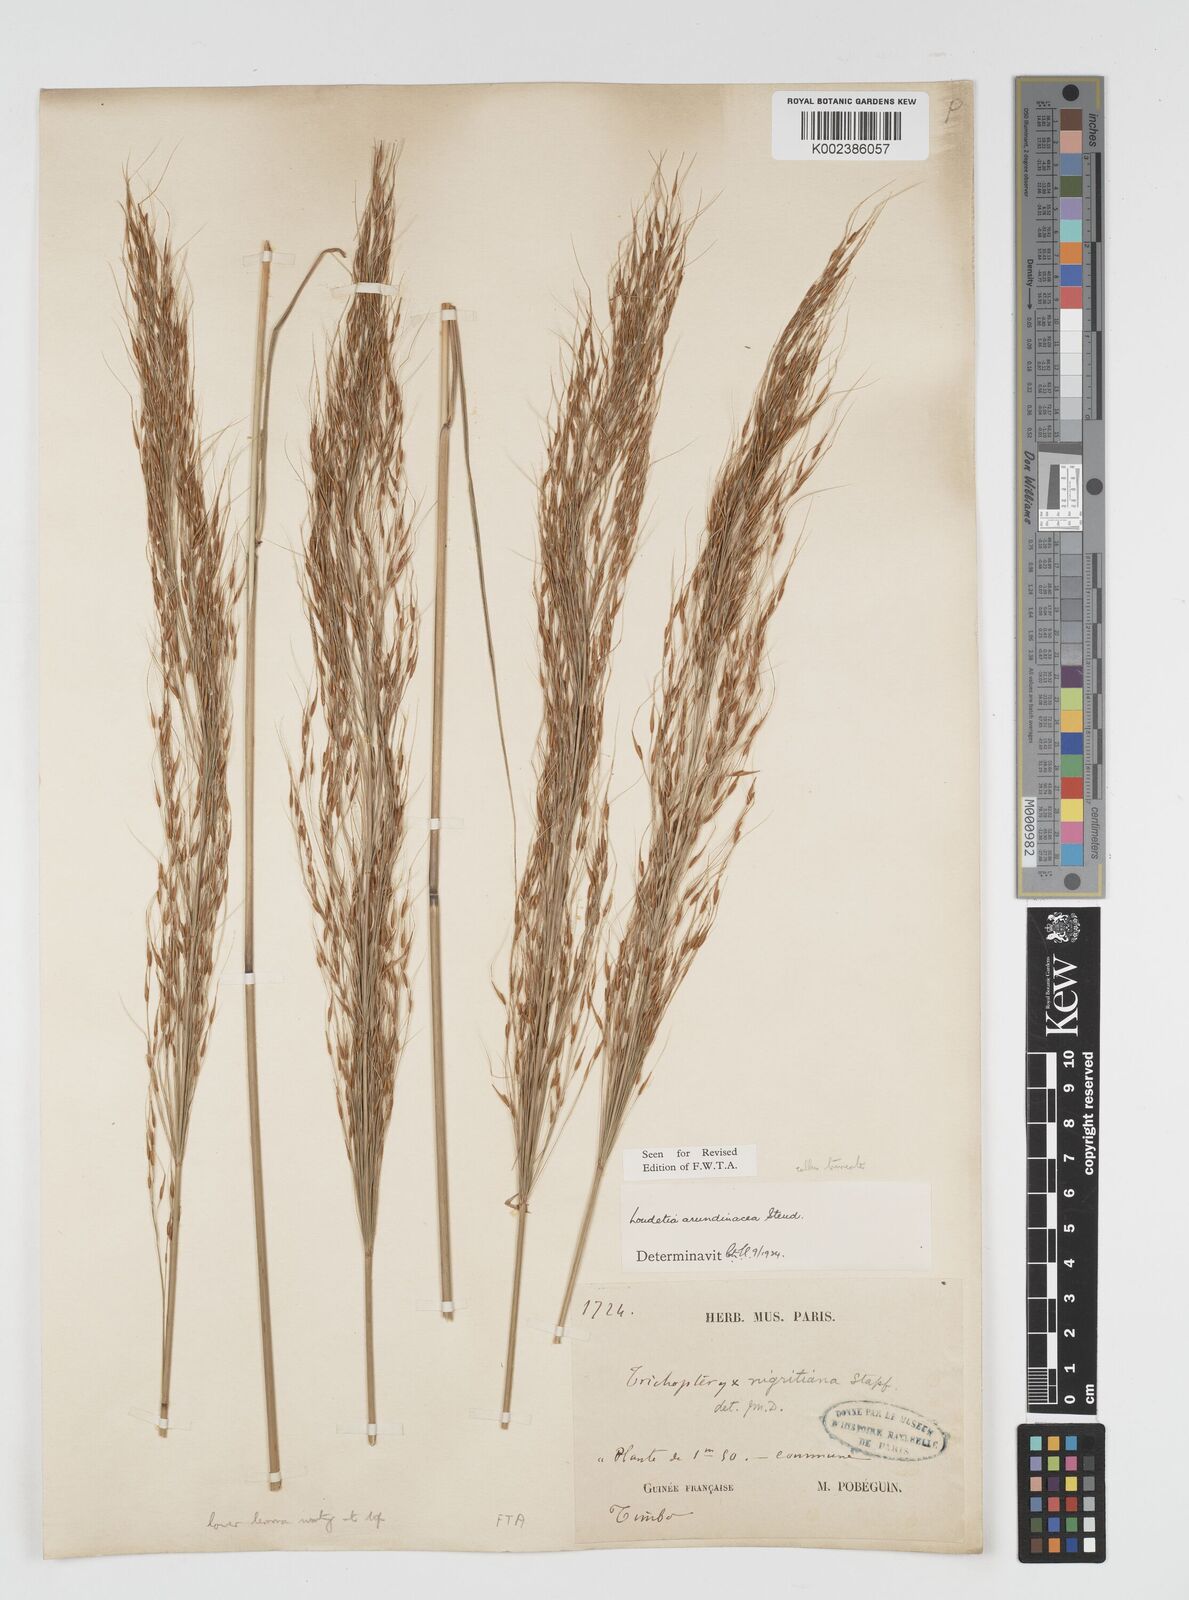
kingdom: Plantae
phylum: Tracheophyta
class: Liliopsida
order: Poales
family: Poaceae
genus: Loudetia
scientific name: Loudetia arundinacea
